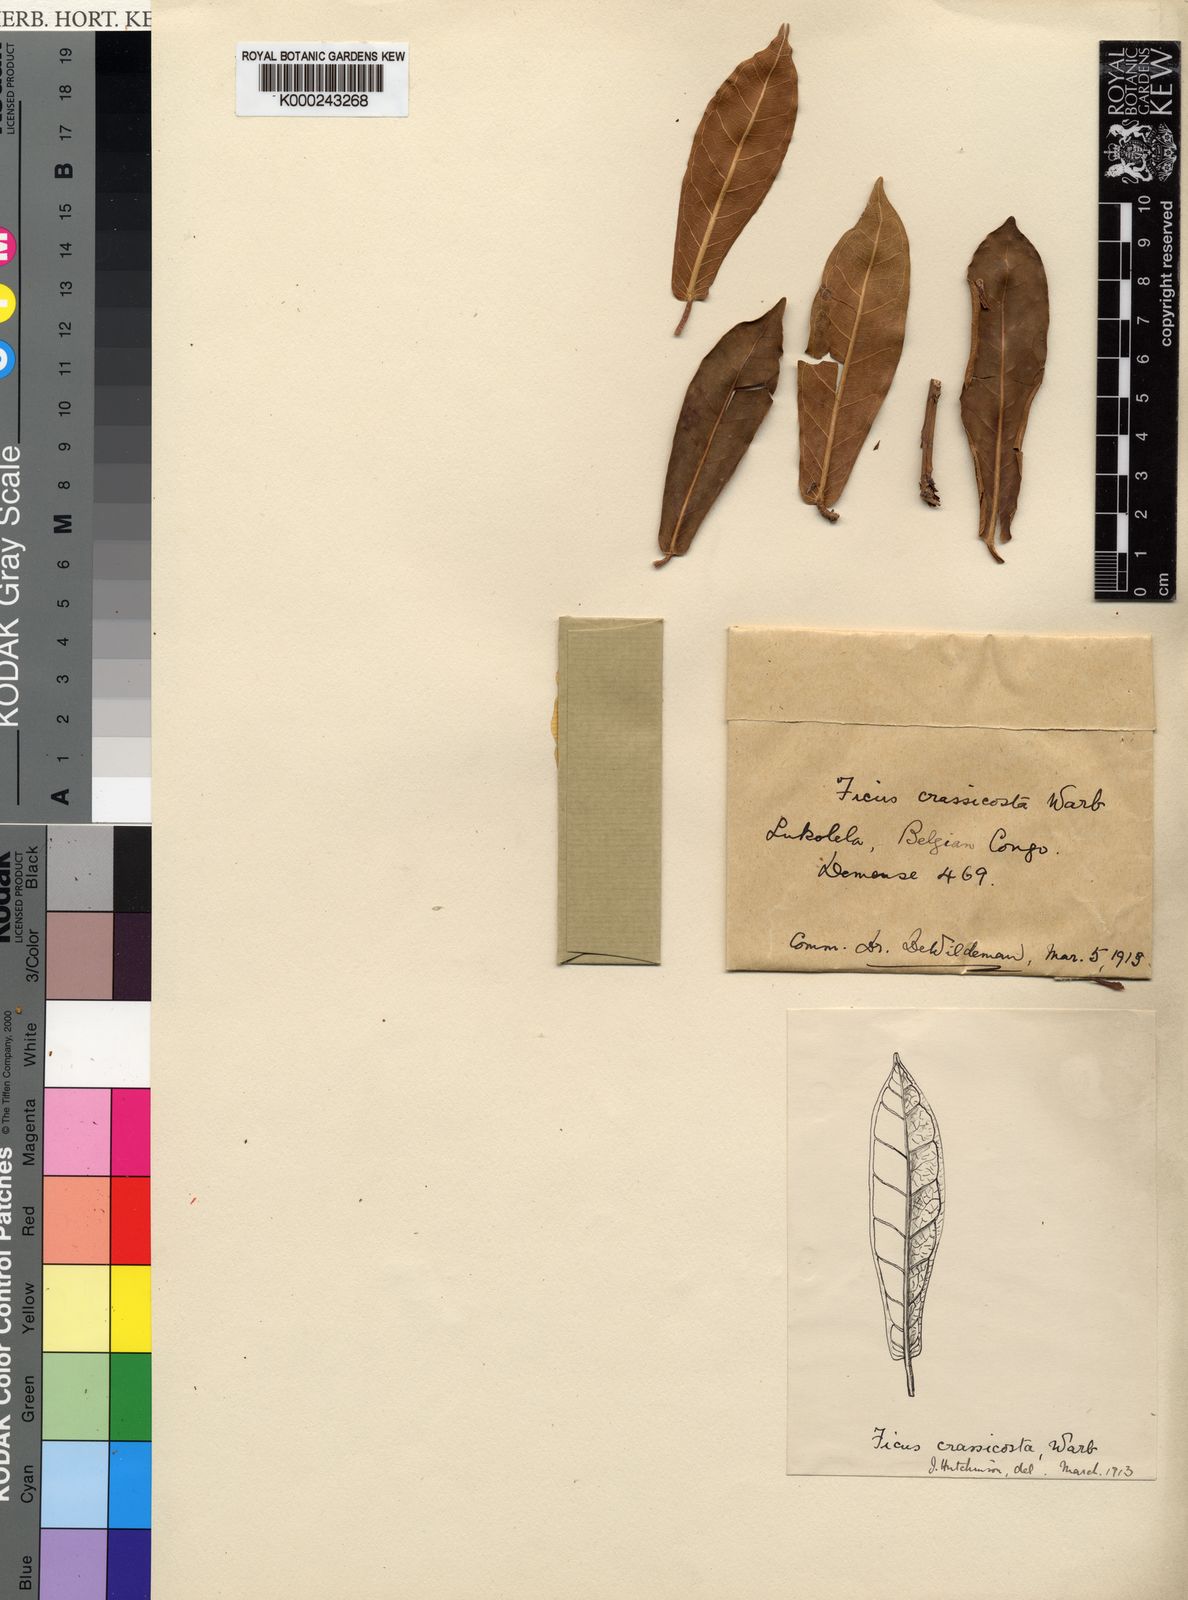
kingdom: Plantae
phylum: Tracheophyta
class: Magnoliopsida
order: Rosales
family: Moraceae
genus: Ficus
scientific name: Ficus crassicosta
